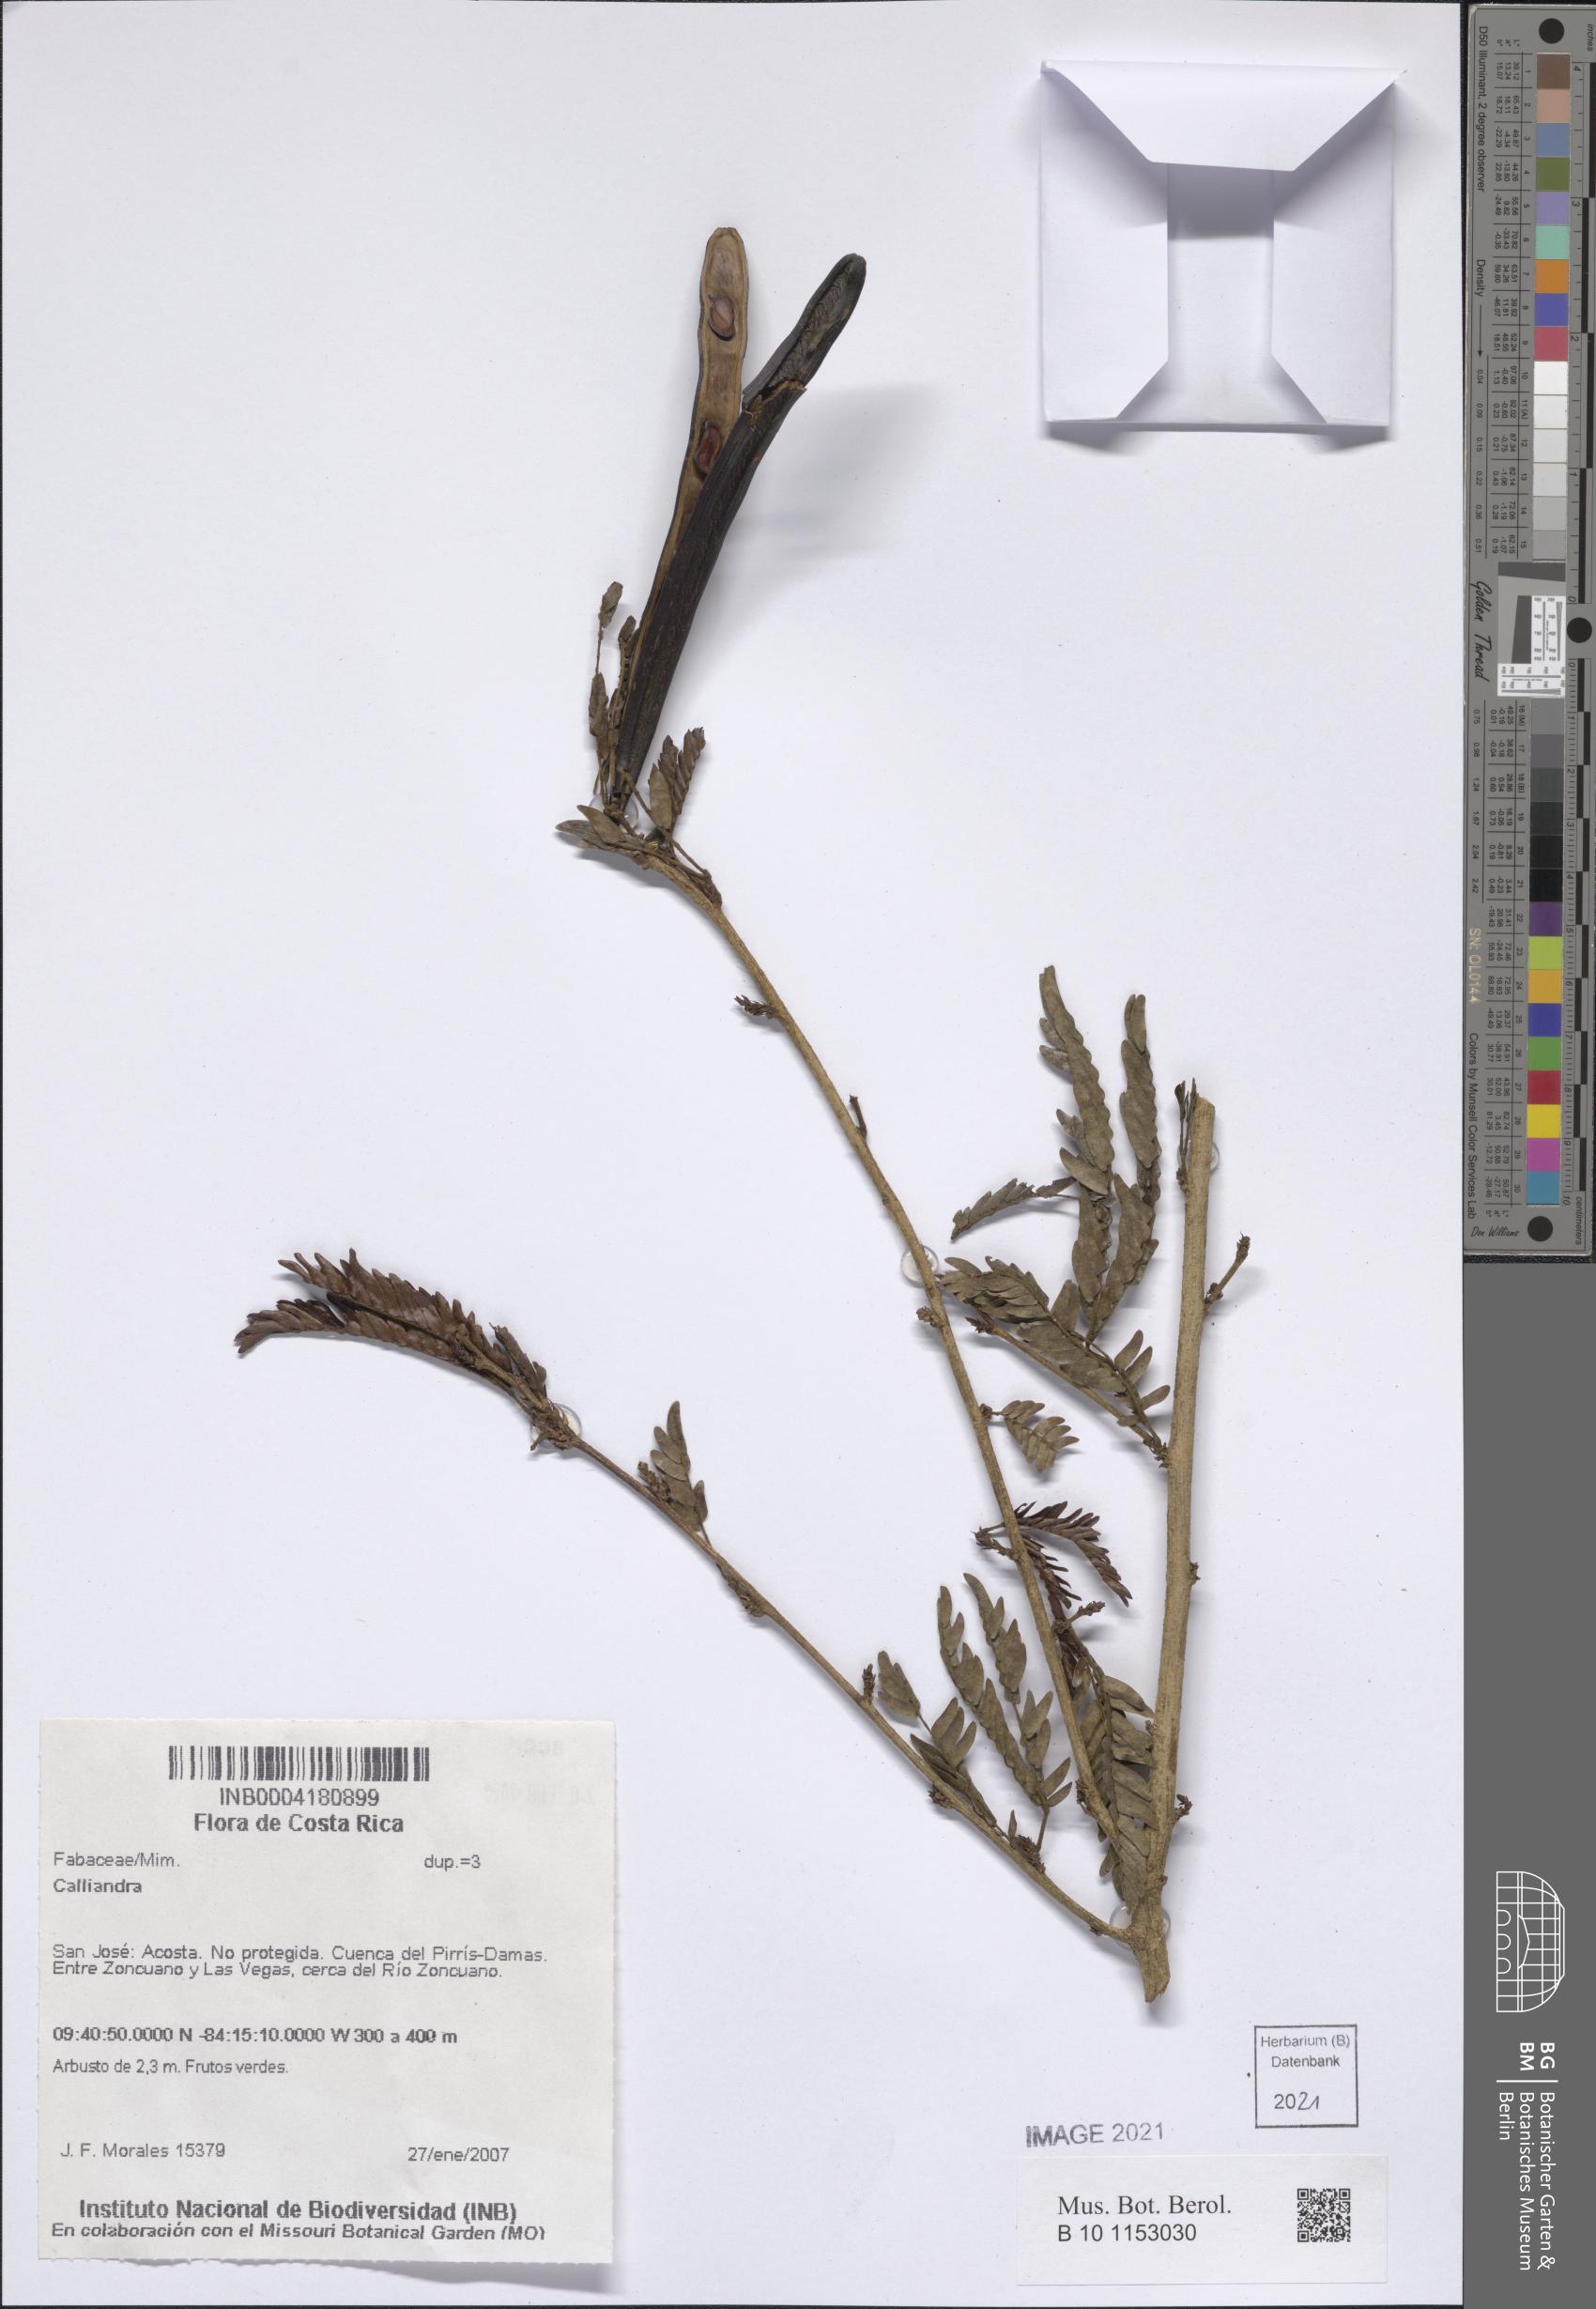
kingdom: Plantae
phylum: Tracheophyta
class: Magnoliopsida
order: Fabales
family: Fabaceae
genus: Calliandra
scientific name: Calliandra magdalenae
